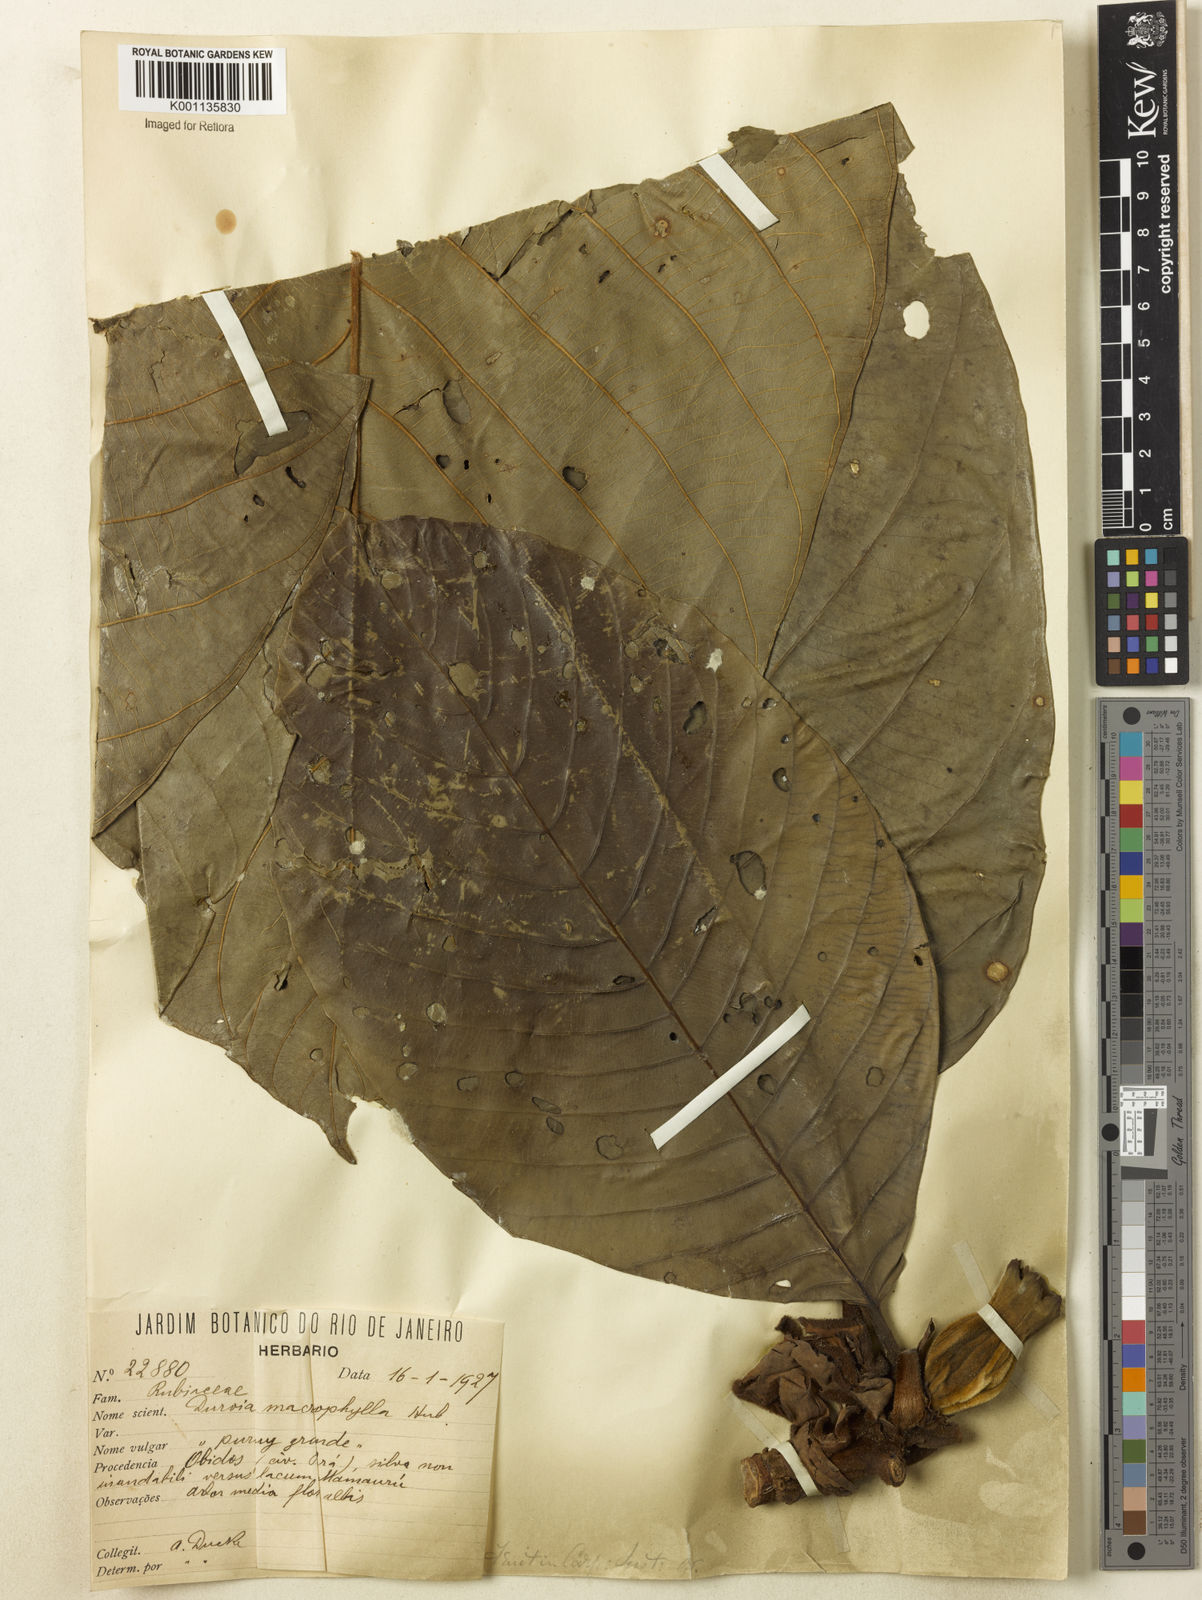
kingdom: Plantae
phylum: Tracheophyta
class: Magnoliopsida
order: Gentianales
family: Rubiaceae
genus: Duroia
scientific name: Duroia macrophylla
